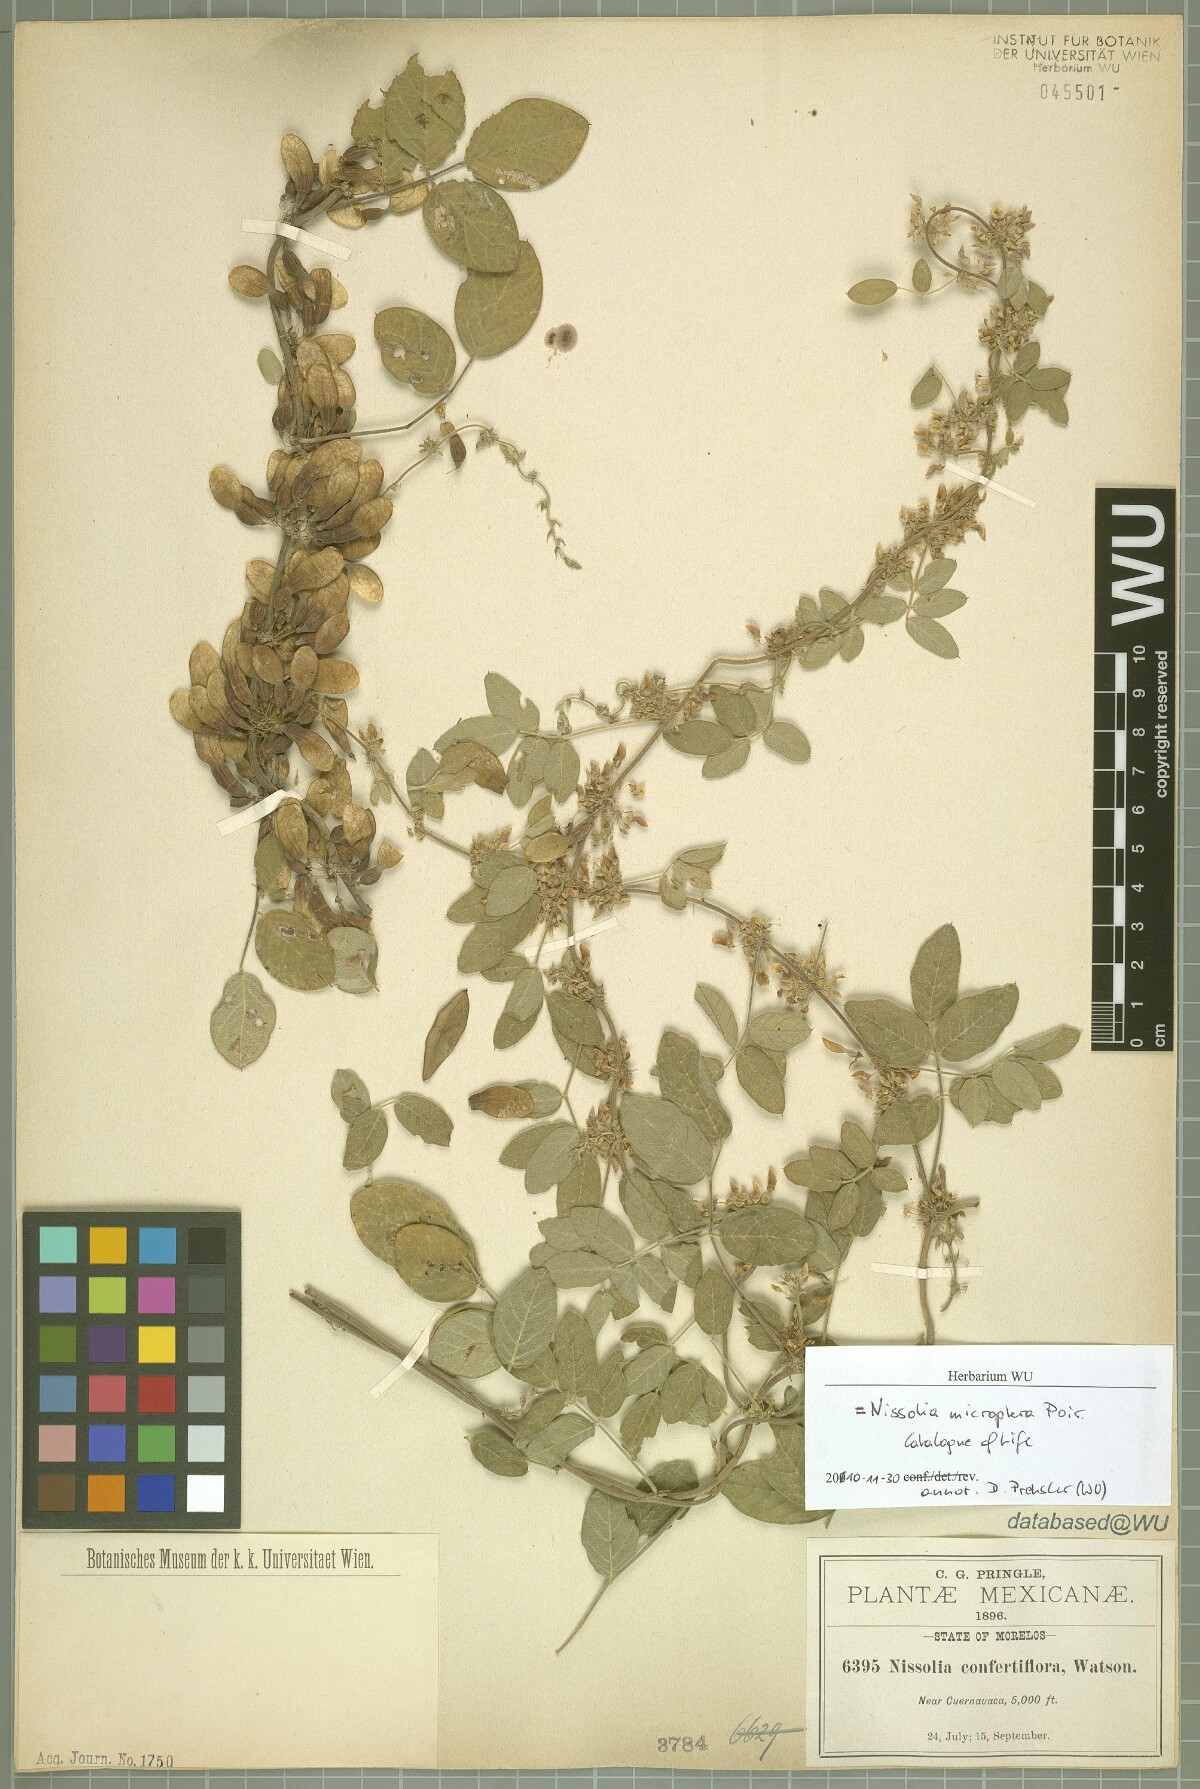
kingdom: Plantae
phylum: Tracheophyta
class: Magnoliopsida
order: Fabales
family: Fabaceae
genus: Nissolia
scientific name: Nissolia microptera
